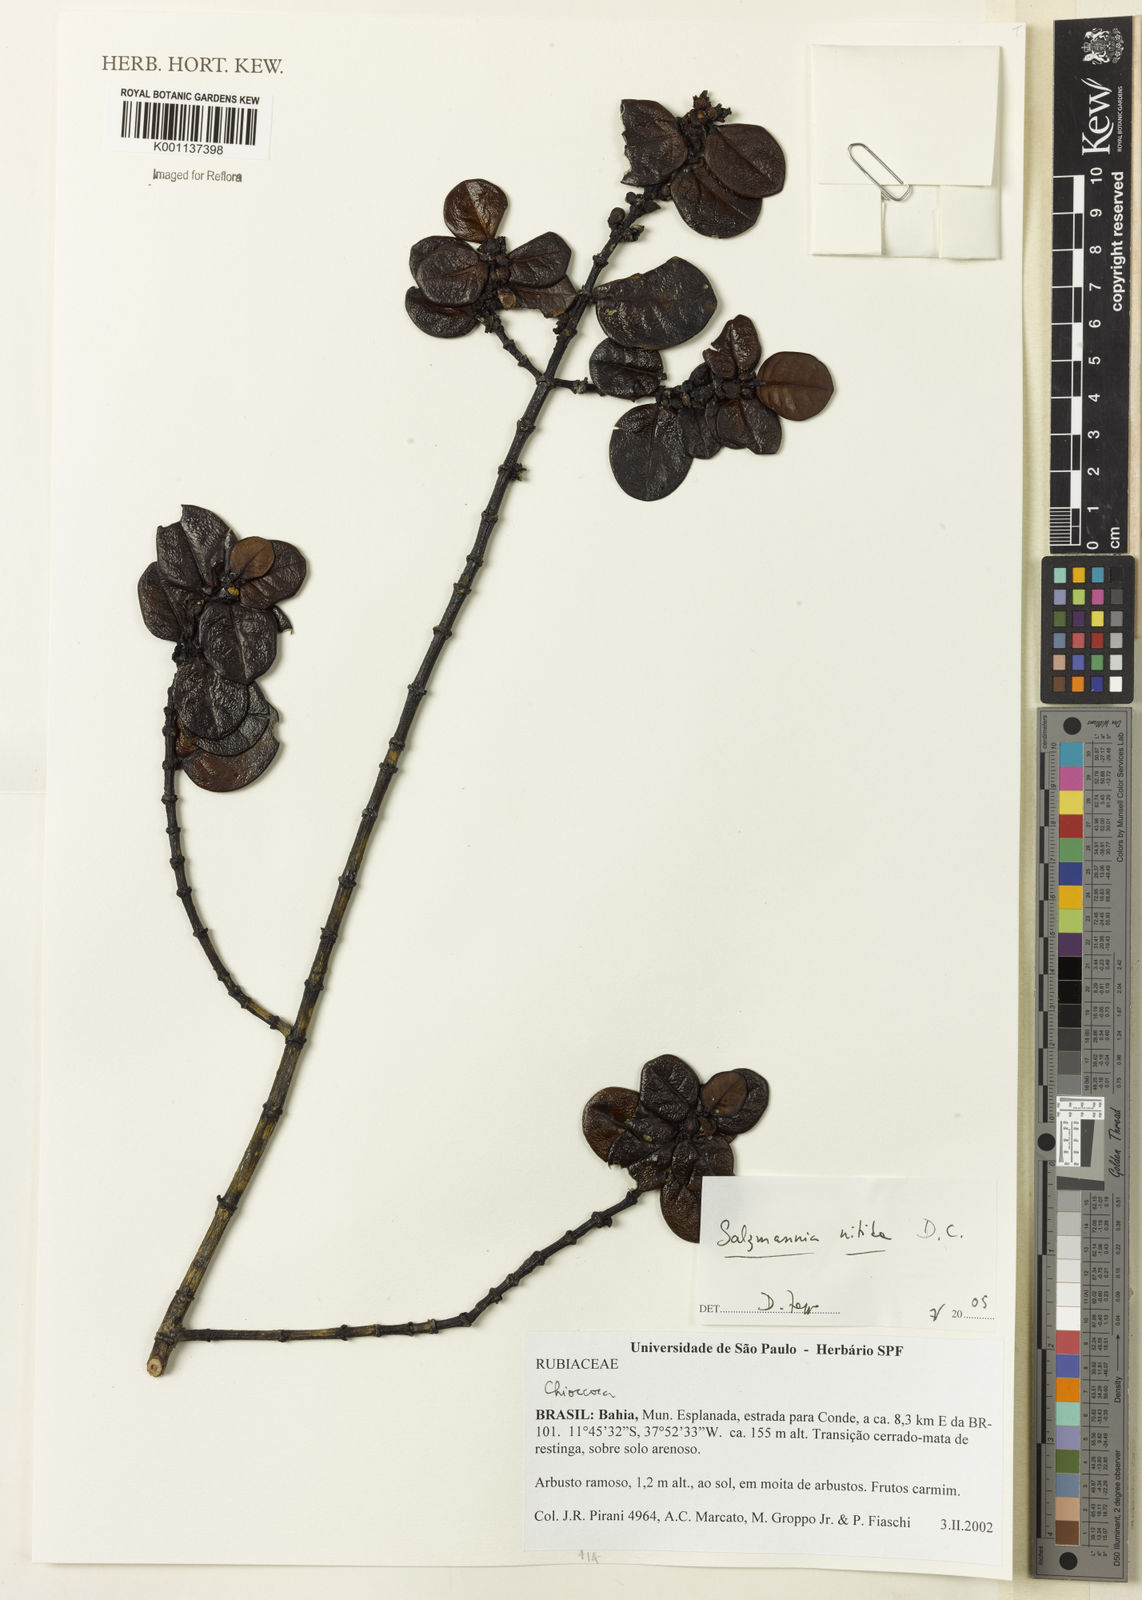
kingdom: Plantae
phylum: Tracheophyta
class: Magnoliopsida
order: Gentianales
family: Rubiaceae
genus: Salzmannia
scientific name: Salzmannia nitida
